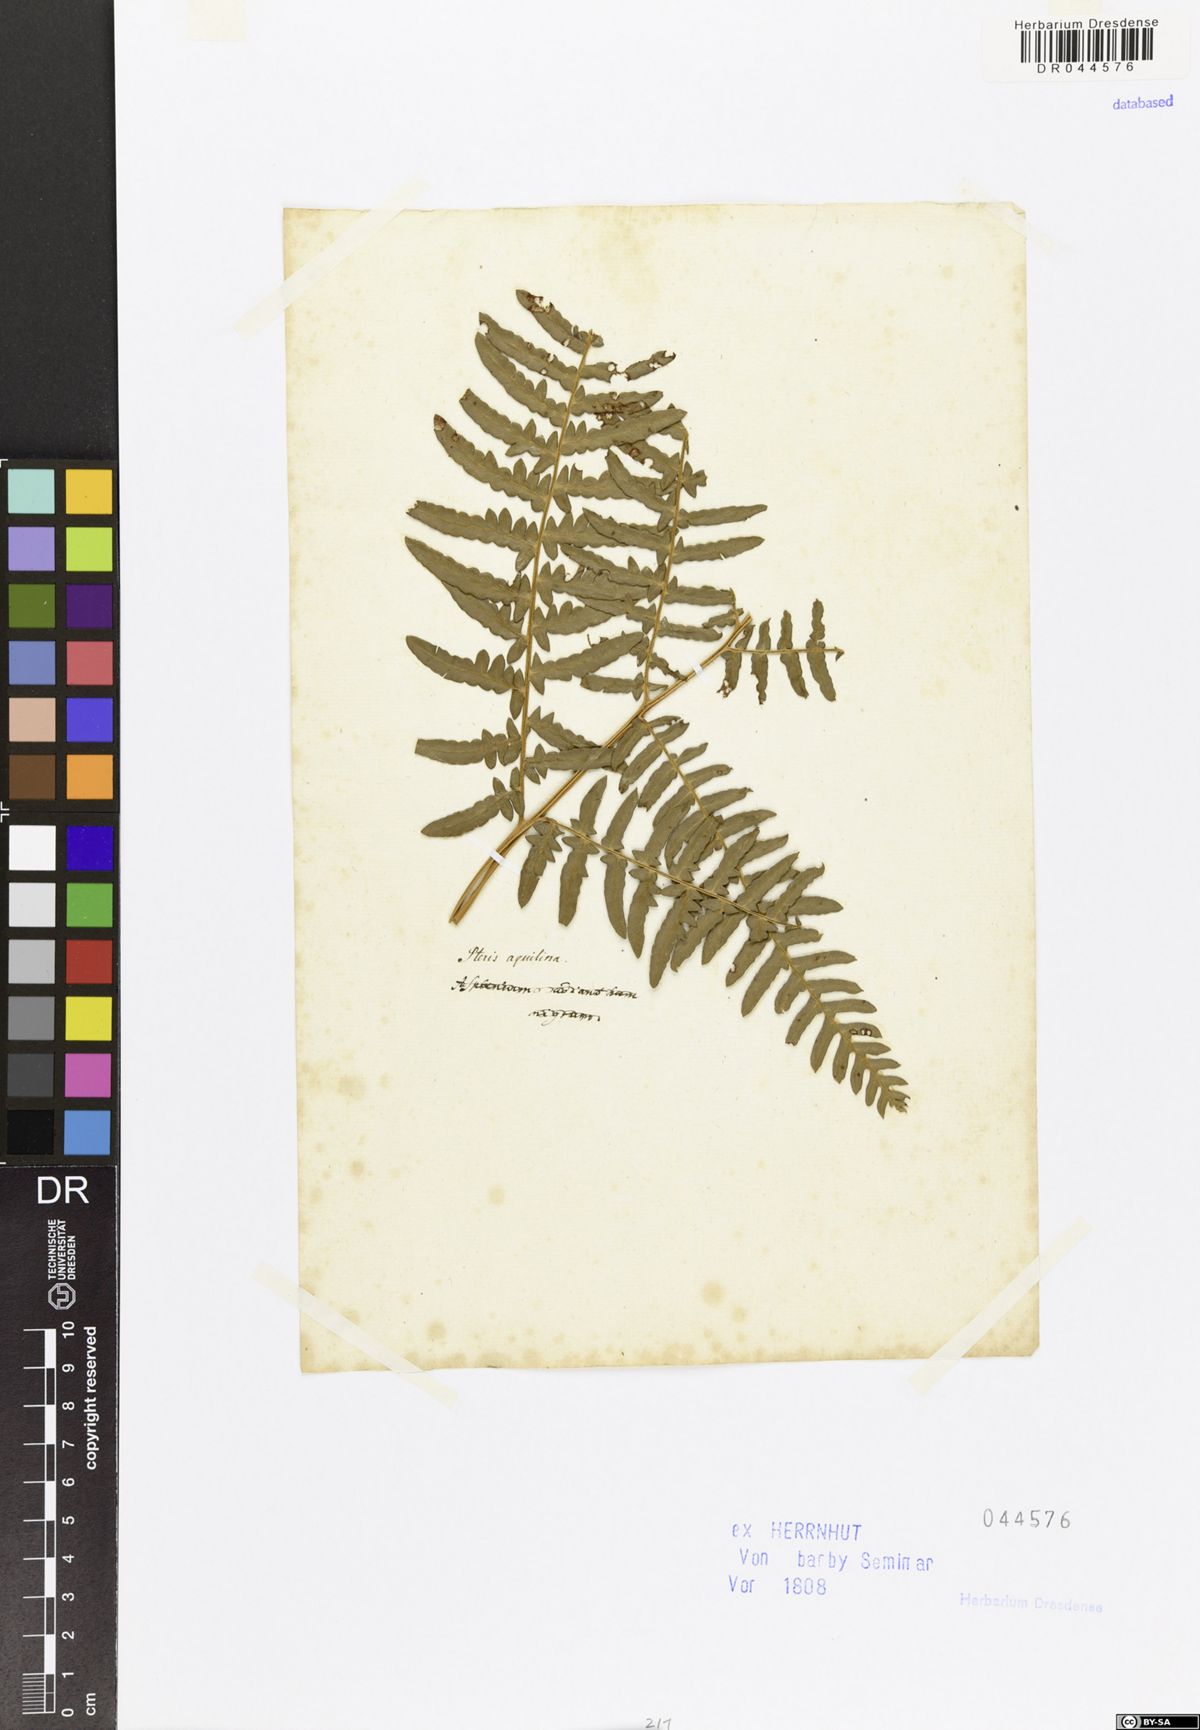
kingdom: Plantae
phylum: Tracheophyta
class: Polypodiopsida
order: Polypodiales
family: Dennstaedtiaceae
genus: Pteridium
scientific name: Pteridium aquilinum
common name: Bracken
